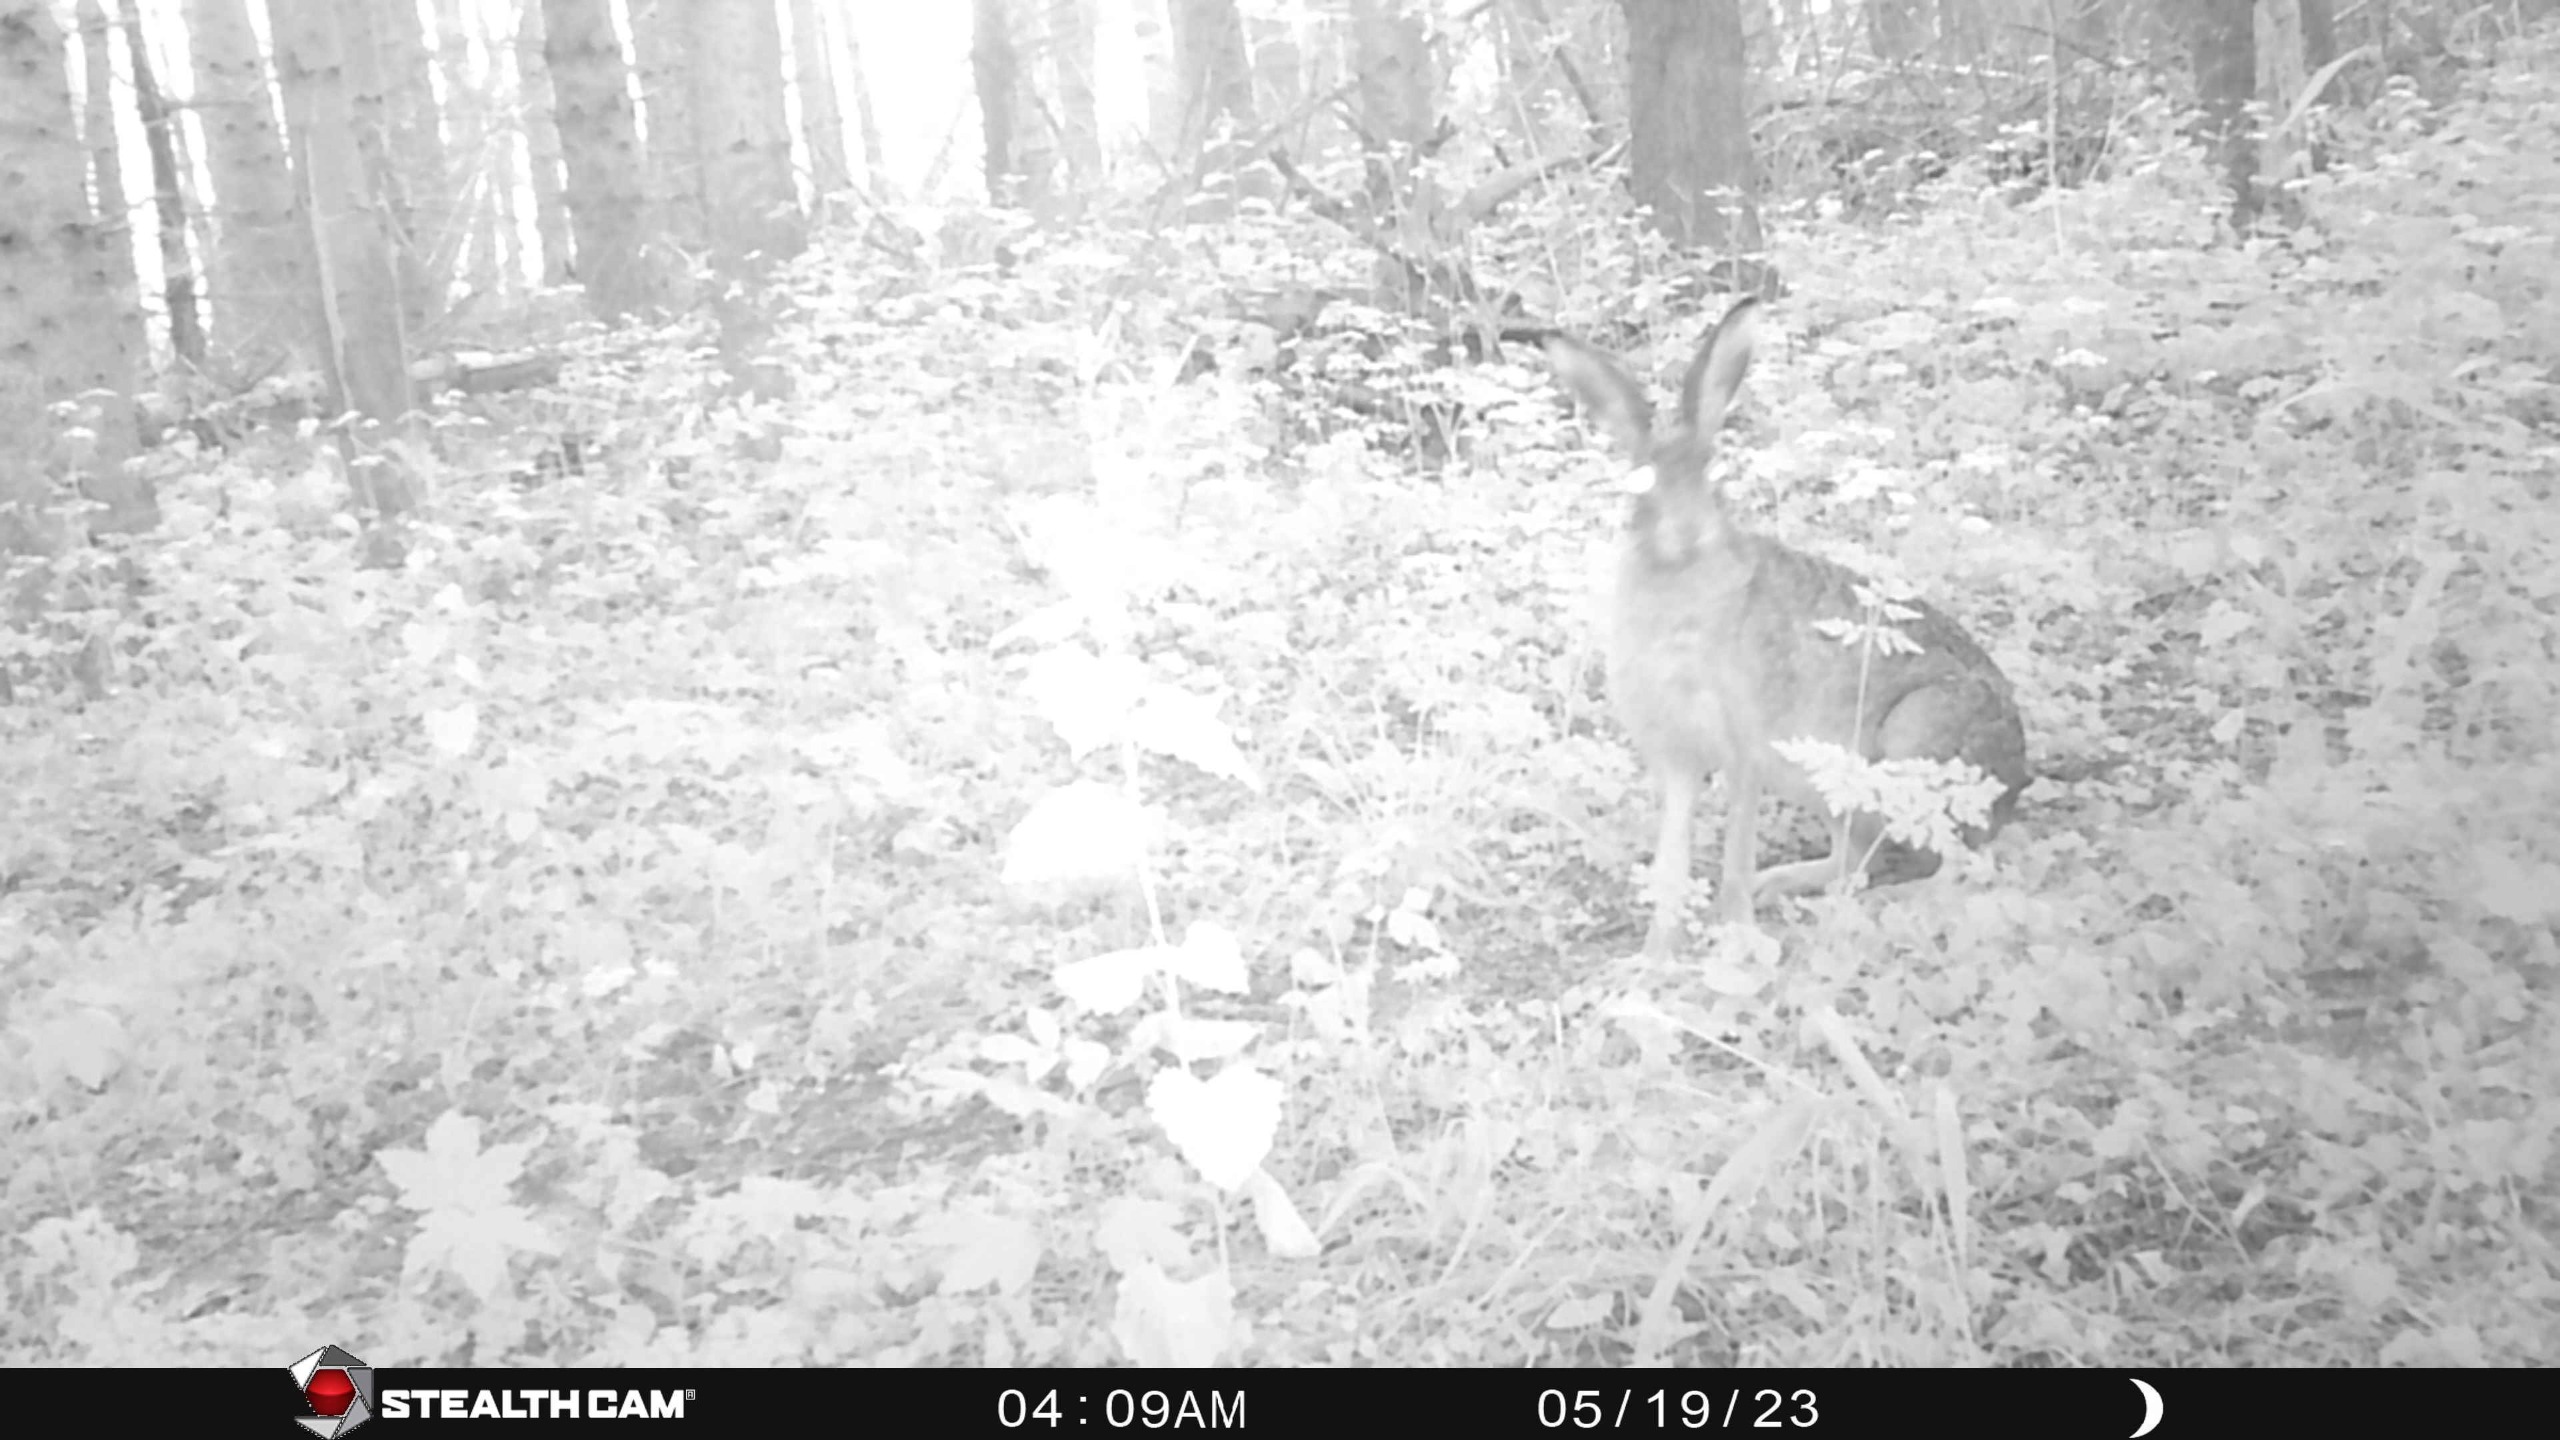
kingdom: Animalia
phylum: Chordata
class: Mammalia
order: Lagomorpha
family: Leporidae
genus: Lepus
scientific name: Lepus europaeus
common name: Hare
